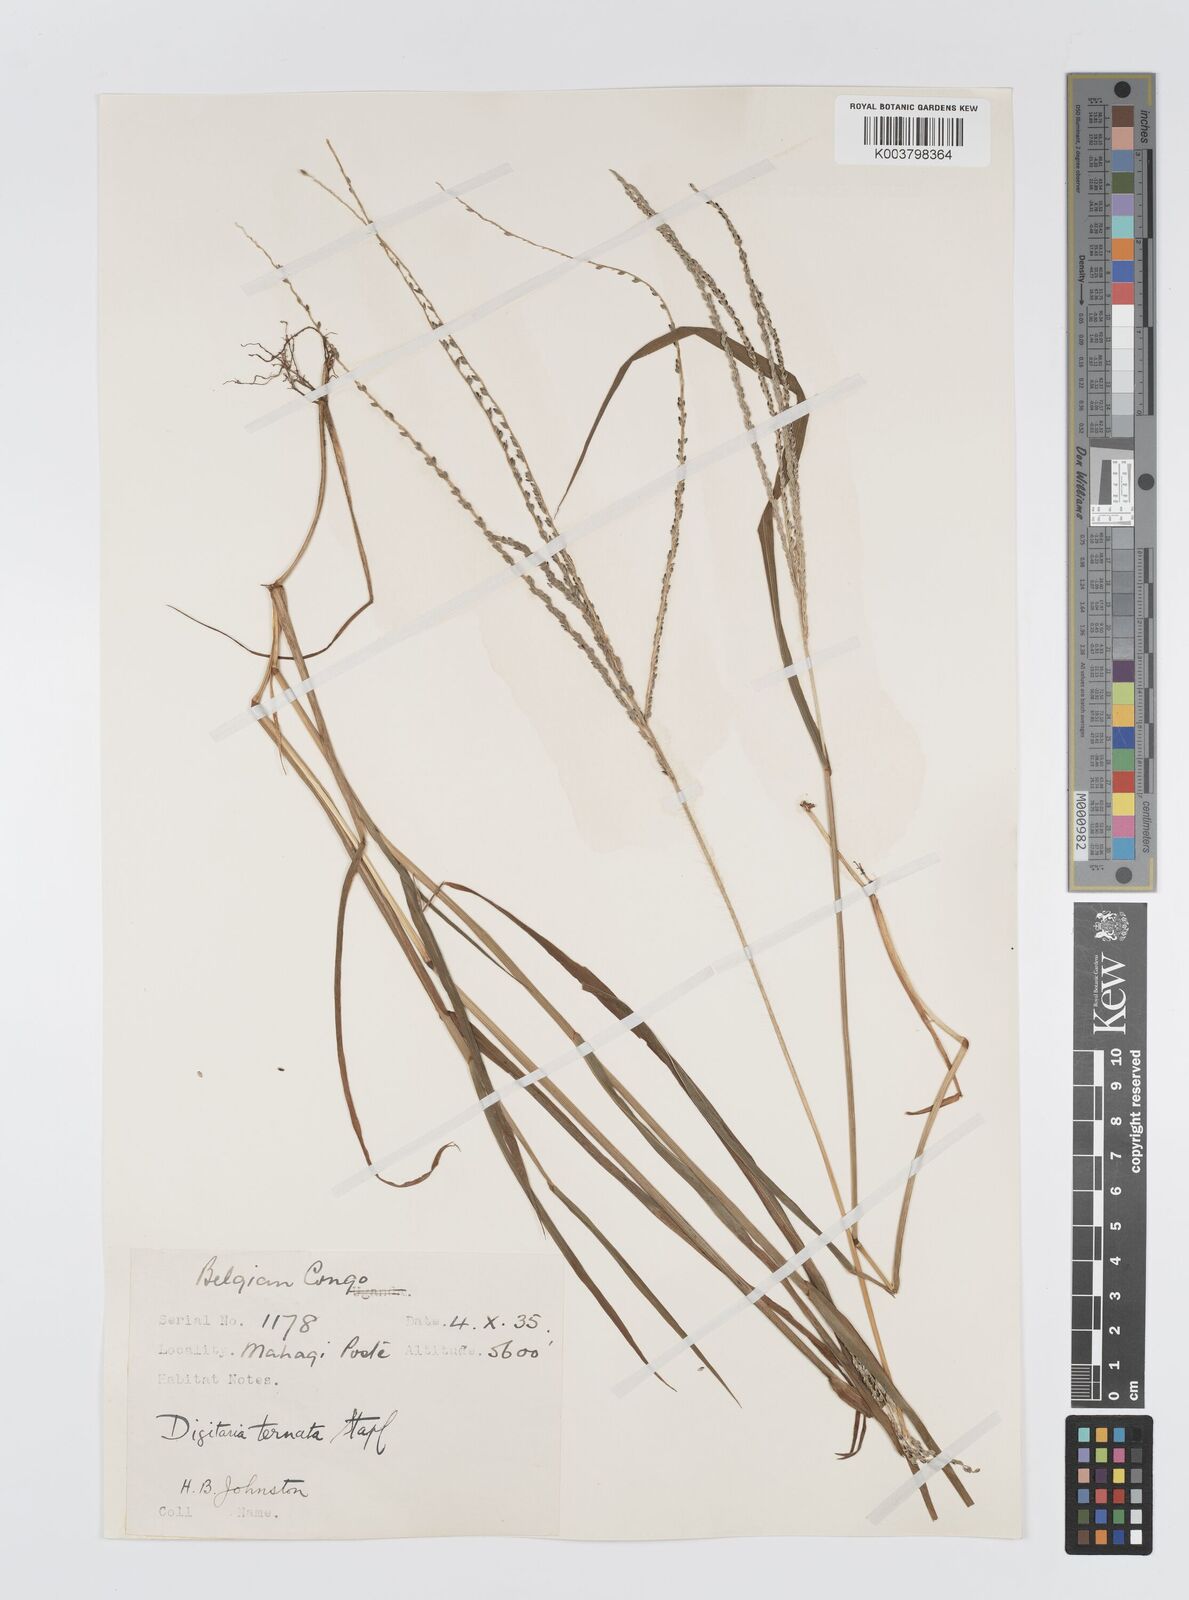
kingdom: Plantae
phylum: Tracheophyta
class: Liliopsida
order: Poales
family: Poaceae
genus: Digitaria
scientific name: Digitaria ternata
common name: Blackseed crabgrass
